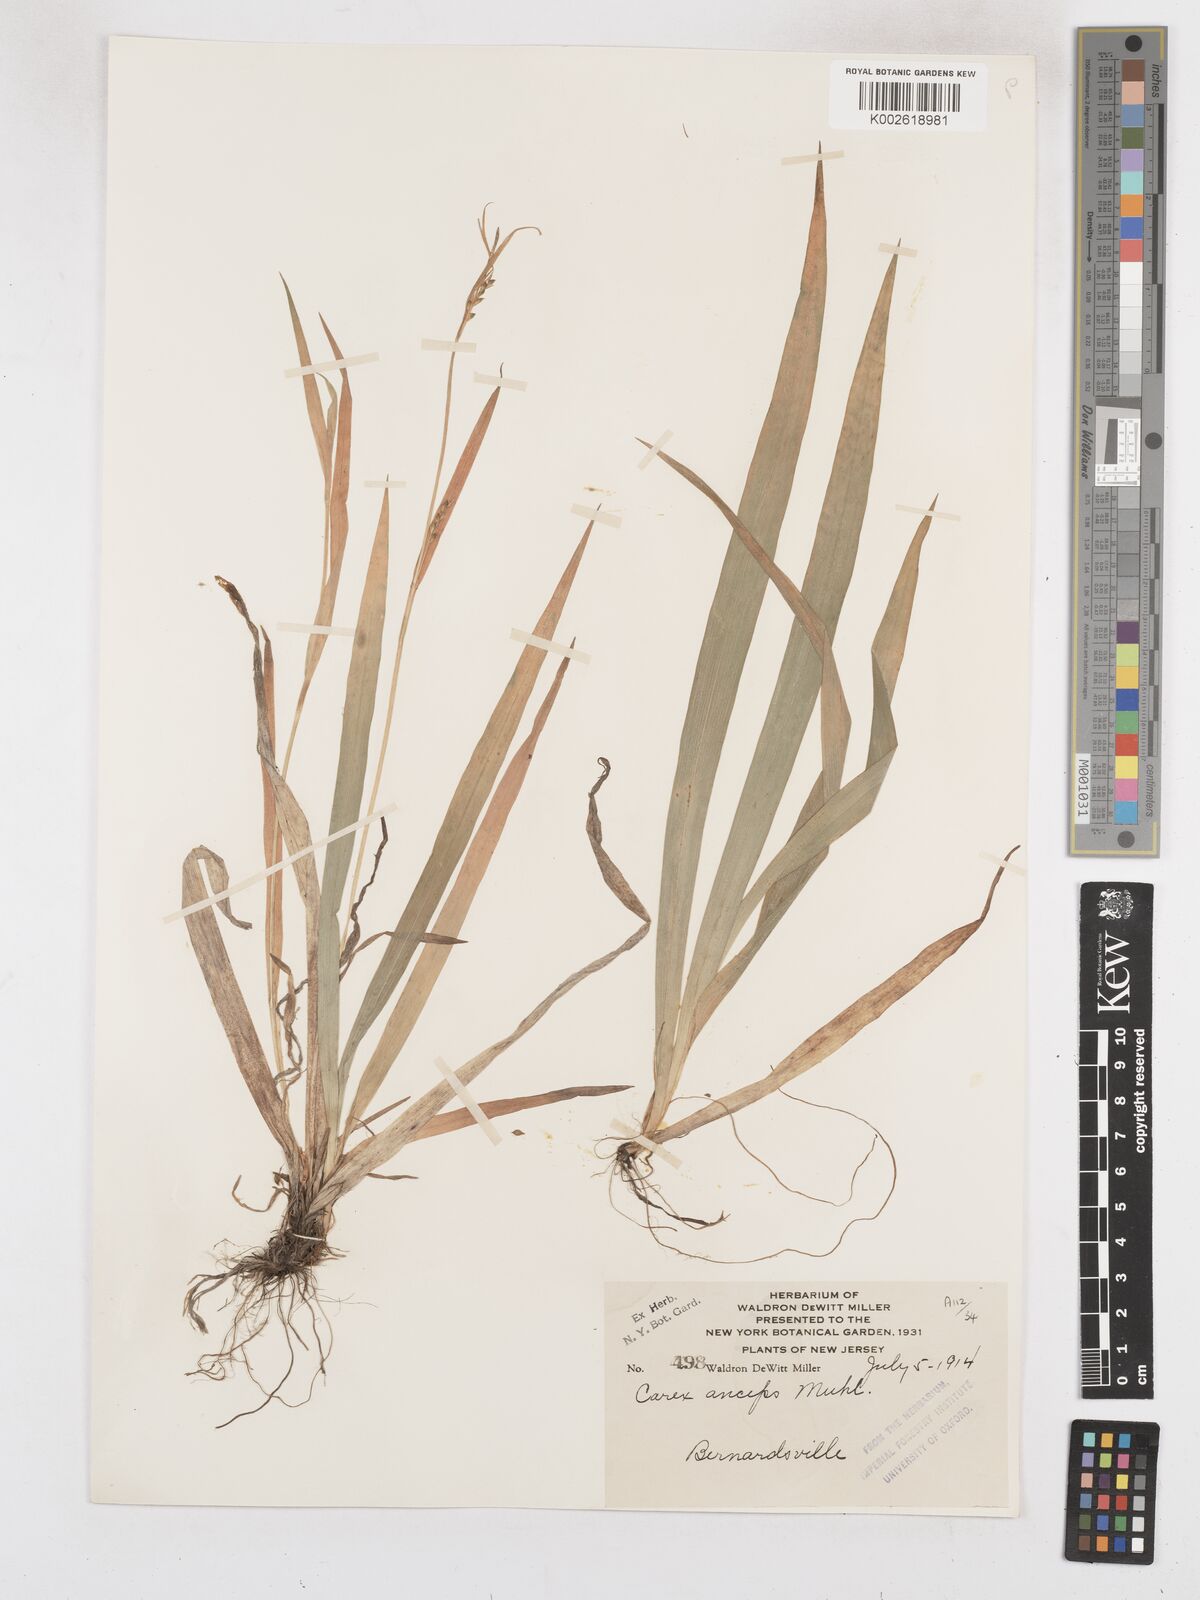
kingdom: Plantae
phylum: Tracheophyta
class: Liliopsida
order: Poales
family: Cyperaceae
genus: Carex
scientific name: Carex striatula
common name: Lined sedge
